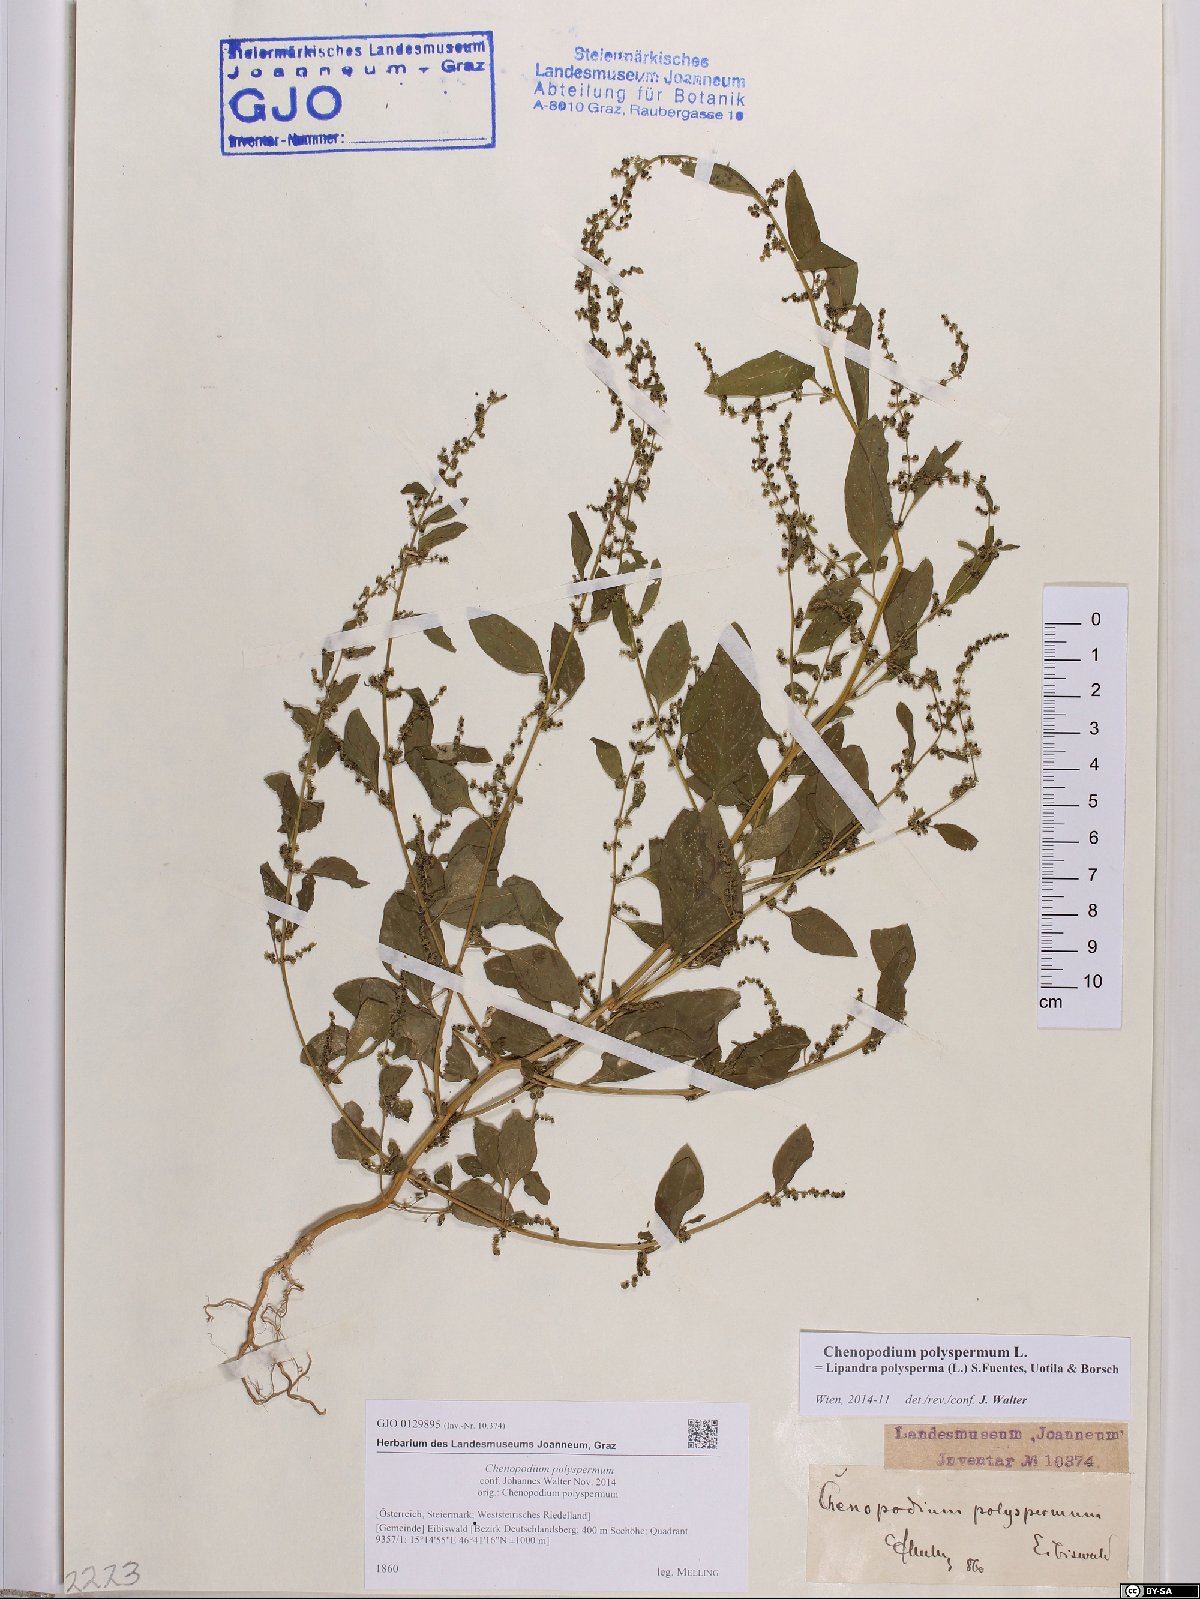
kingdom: Plantae
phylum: Tracheophyta
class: Magnoliopsida
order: Caryophyllales
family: Amaranthaceae
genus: Lipandra
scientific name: Lipandra polysperma
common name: Many-seed goosefoot
